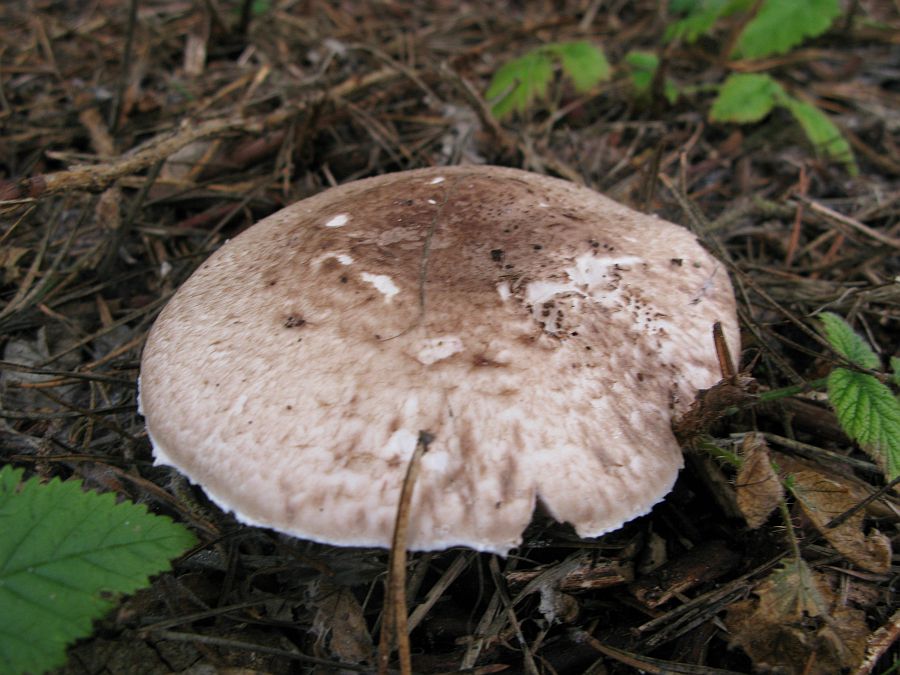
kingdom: Fungi
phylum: Basidiomycota
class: Agaricomycetes
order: Agaricales
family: Agaricaceae
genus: Agaricus
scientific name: Agaricus impudicus
